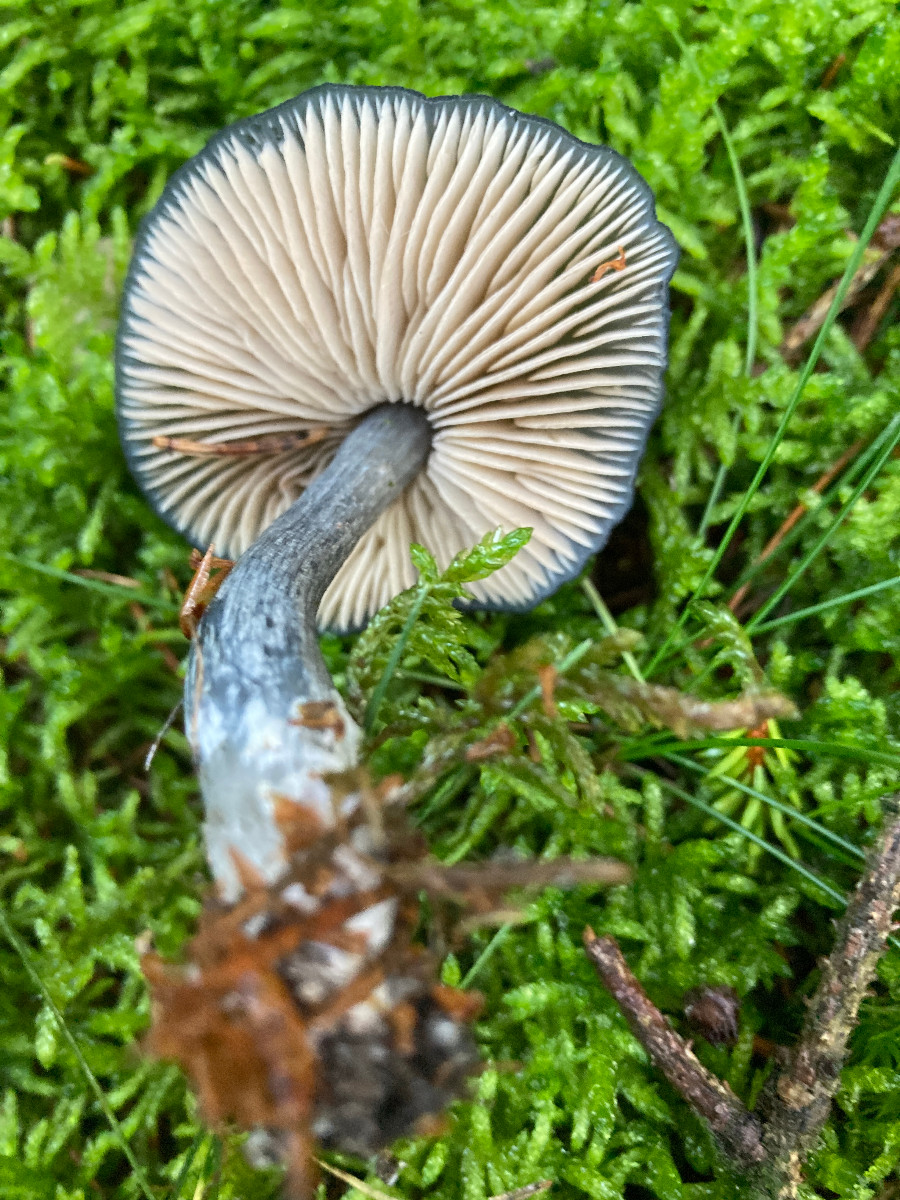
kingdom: Fungi
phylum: Basidiomycota
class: Agaricomycetes
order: Agaricales
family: Entolomataceae
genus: Entocybe
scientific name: Entocybe nitida
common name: stålblå rødblad
